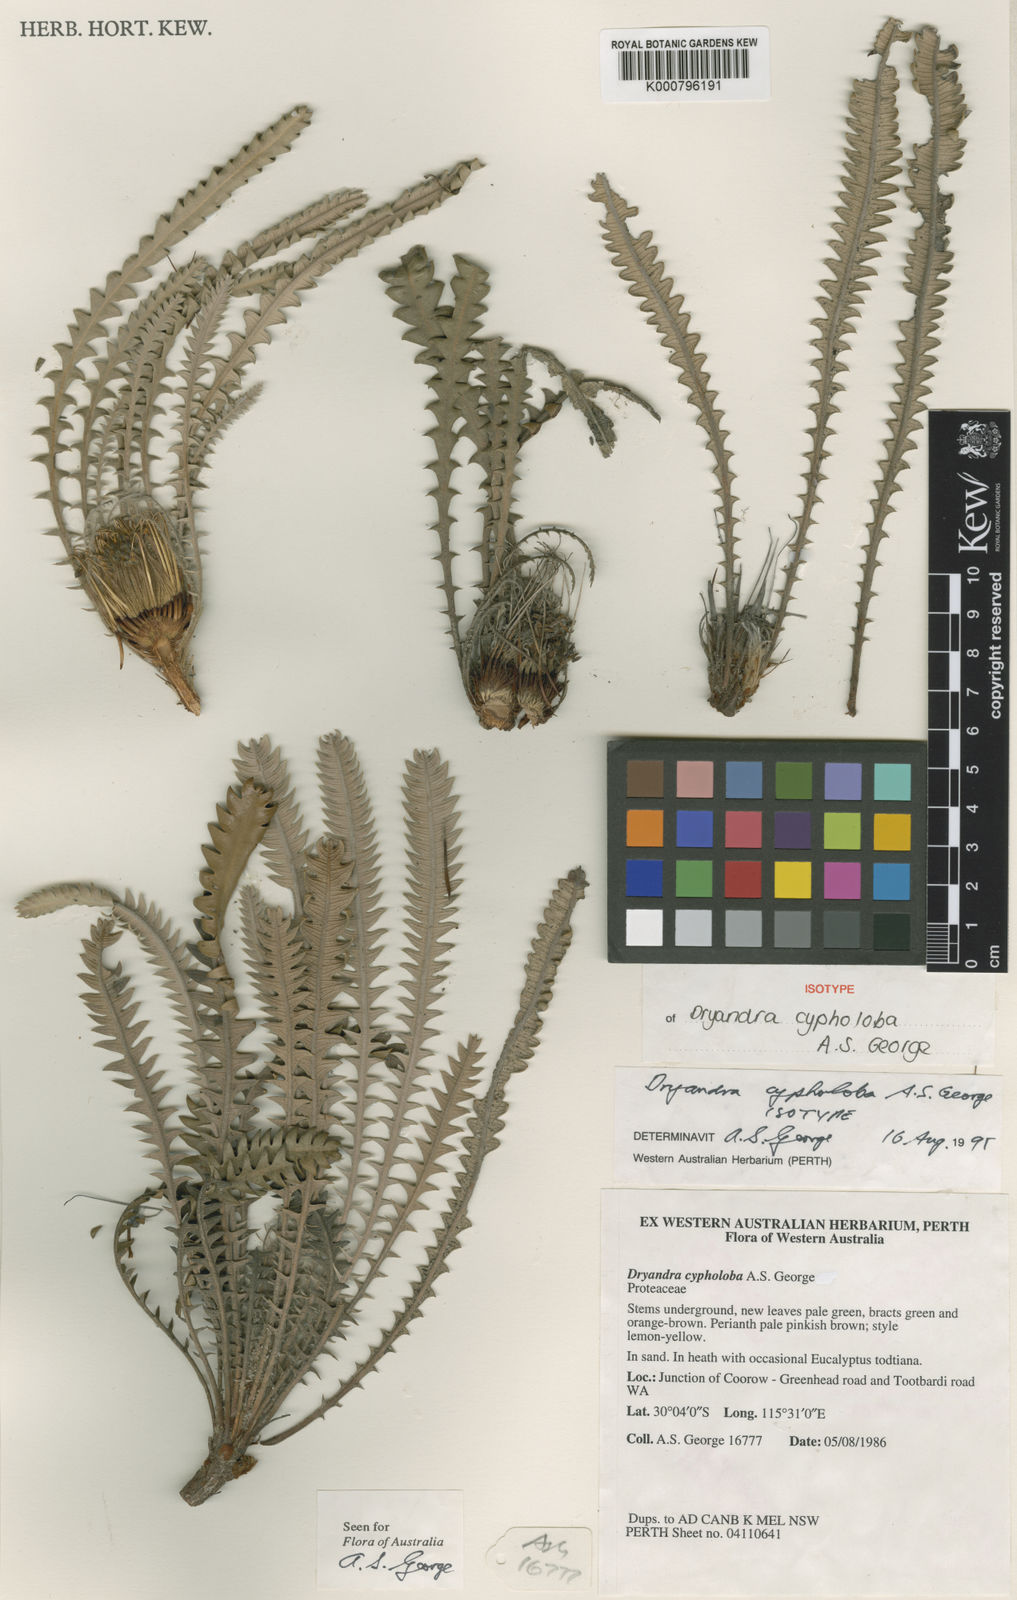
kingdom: Plantae
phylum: Tracheophyta
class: Magnoliopsida
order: Proteales
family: Proteaceae
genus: Banksia
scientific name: Banksia cypholoba
